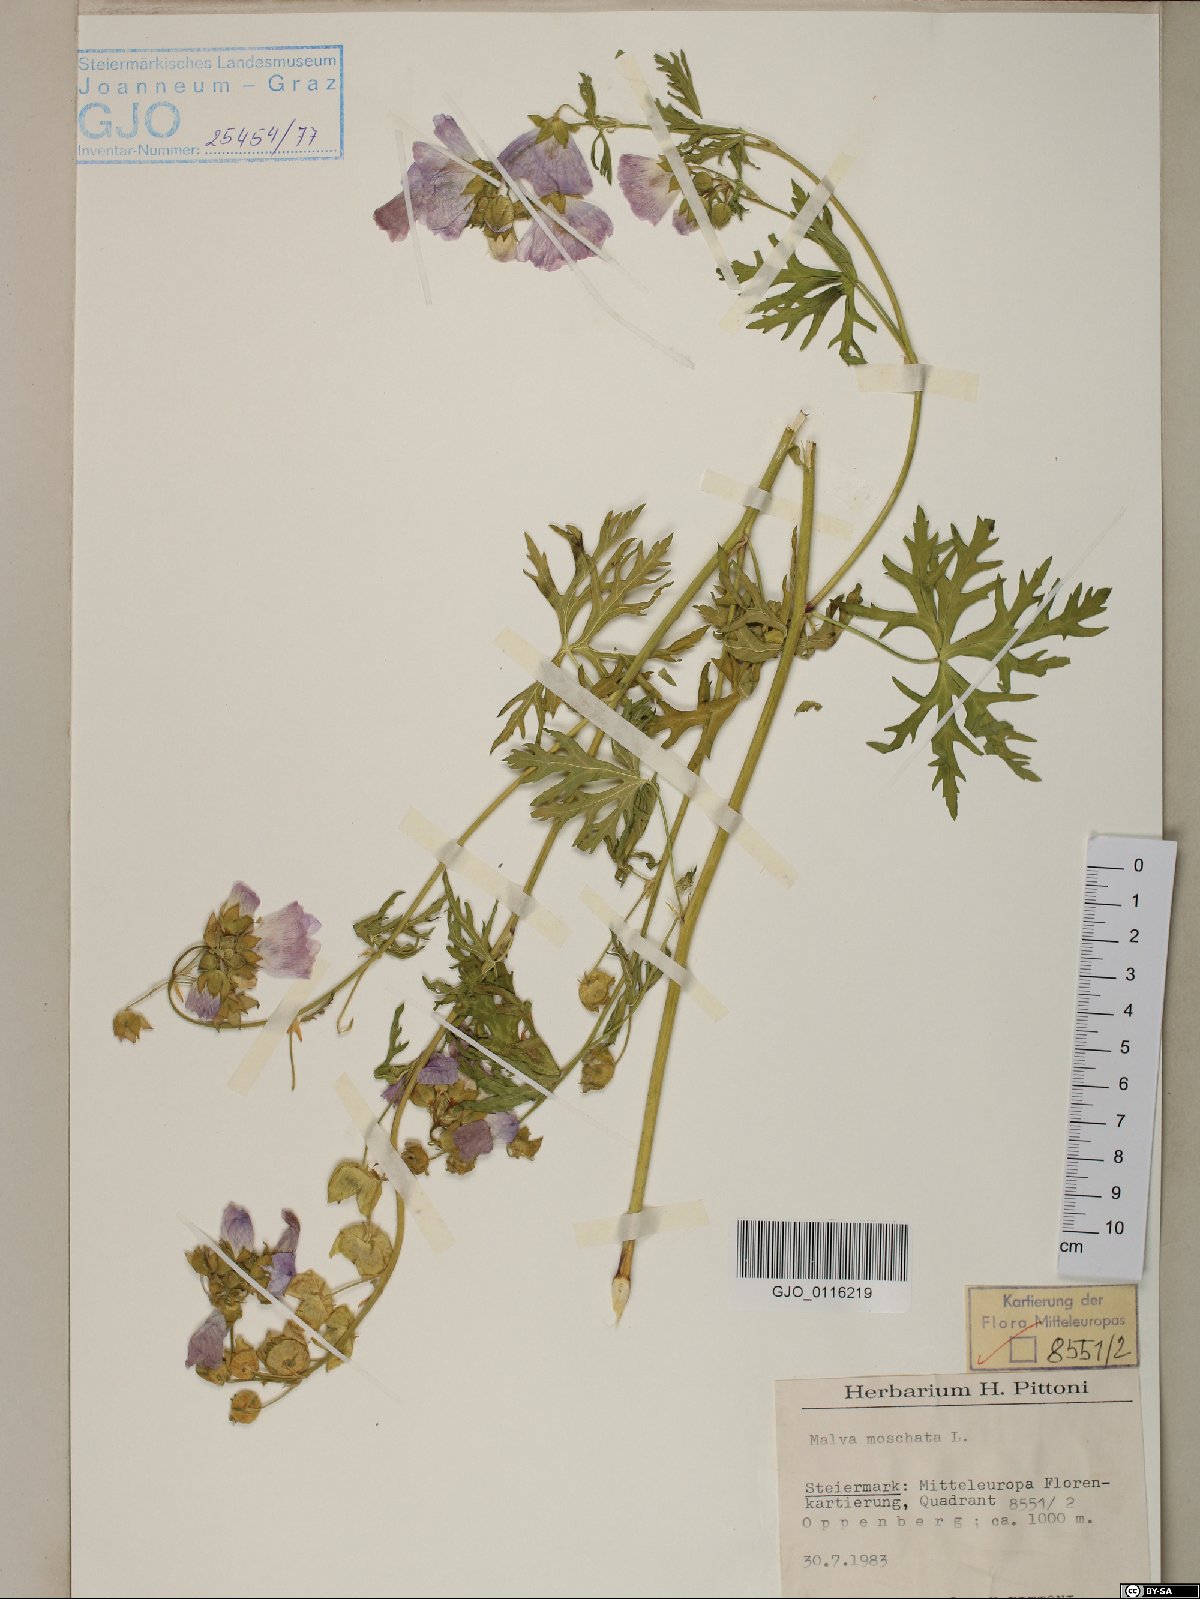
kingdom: Plantae
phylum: Tracheophyta
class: Magnoliopsida
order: Malvales
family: Malvaceae
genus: Malva
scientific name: Malva moschata
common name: Musk mallow
